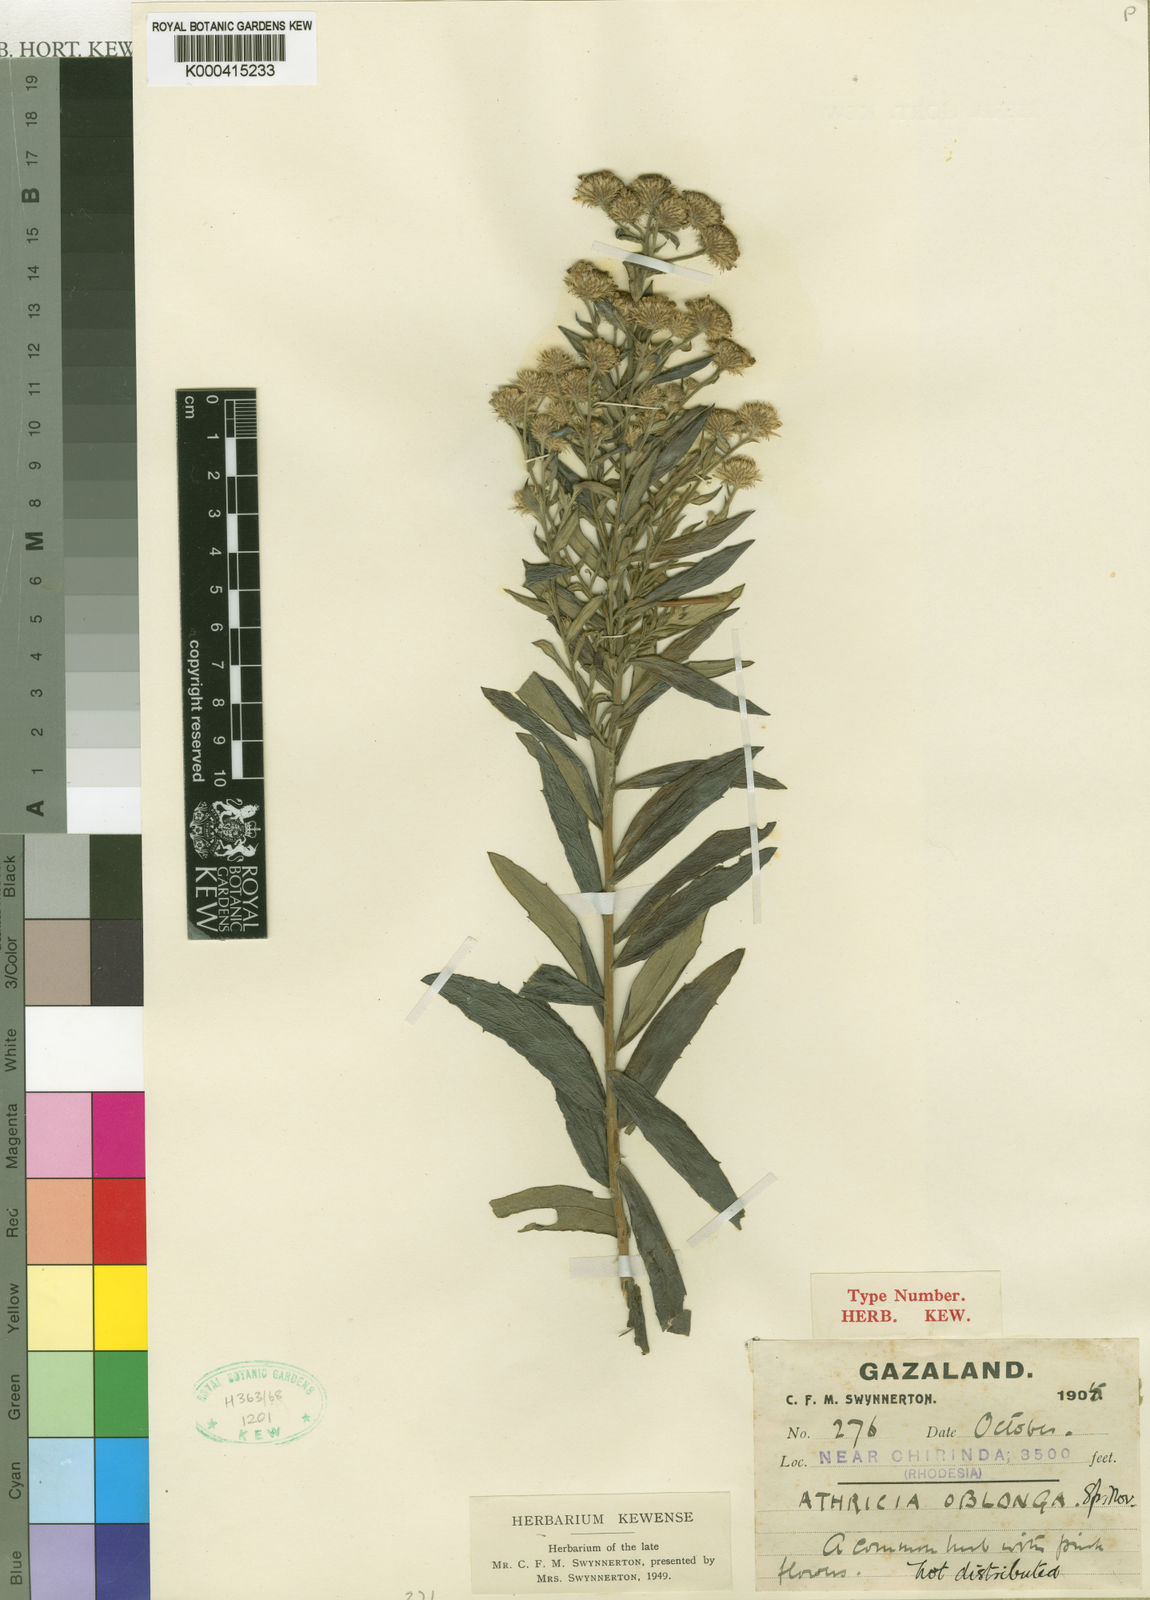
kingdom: Plantae
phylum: Tracheophyta
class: Magnoliopsida
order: Asterales
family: Asteraceae
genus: Athrixia
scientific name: Athrixia oblonga
